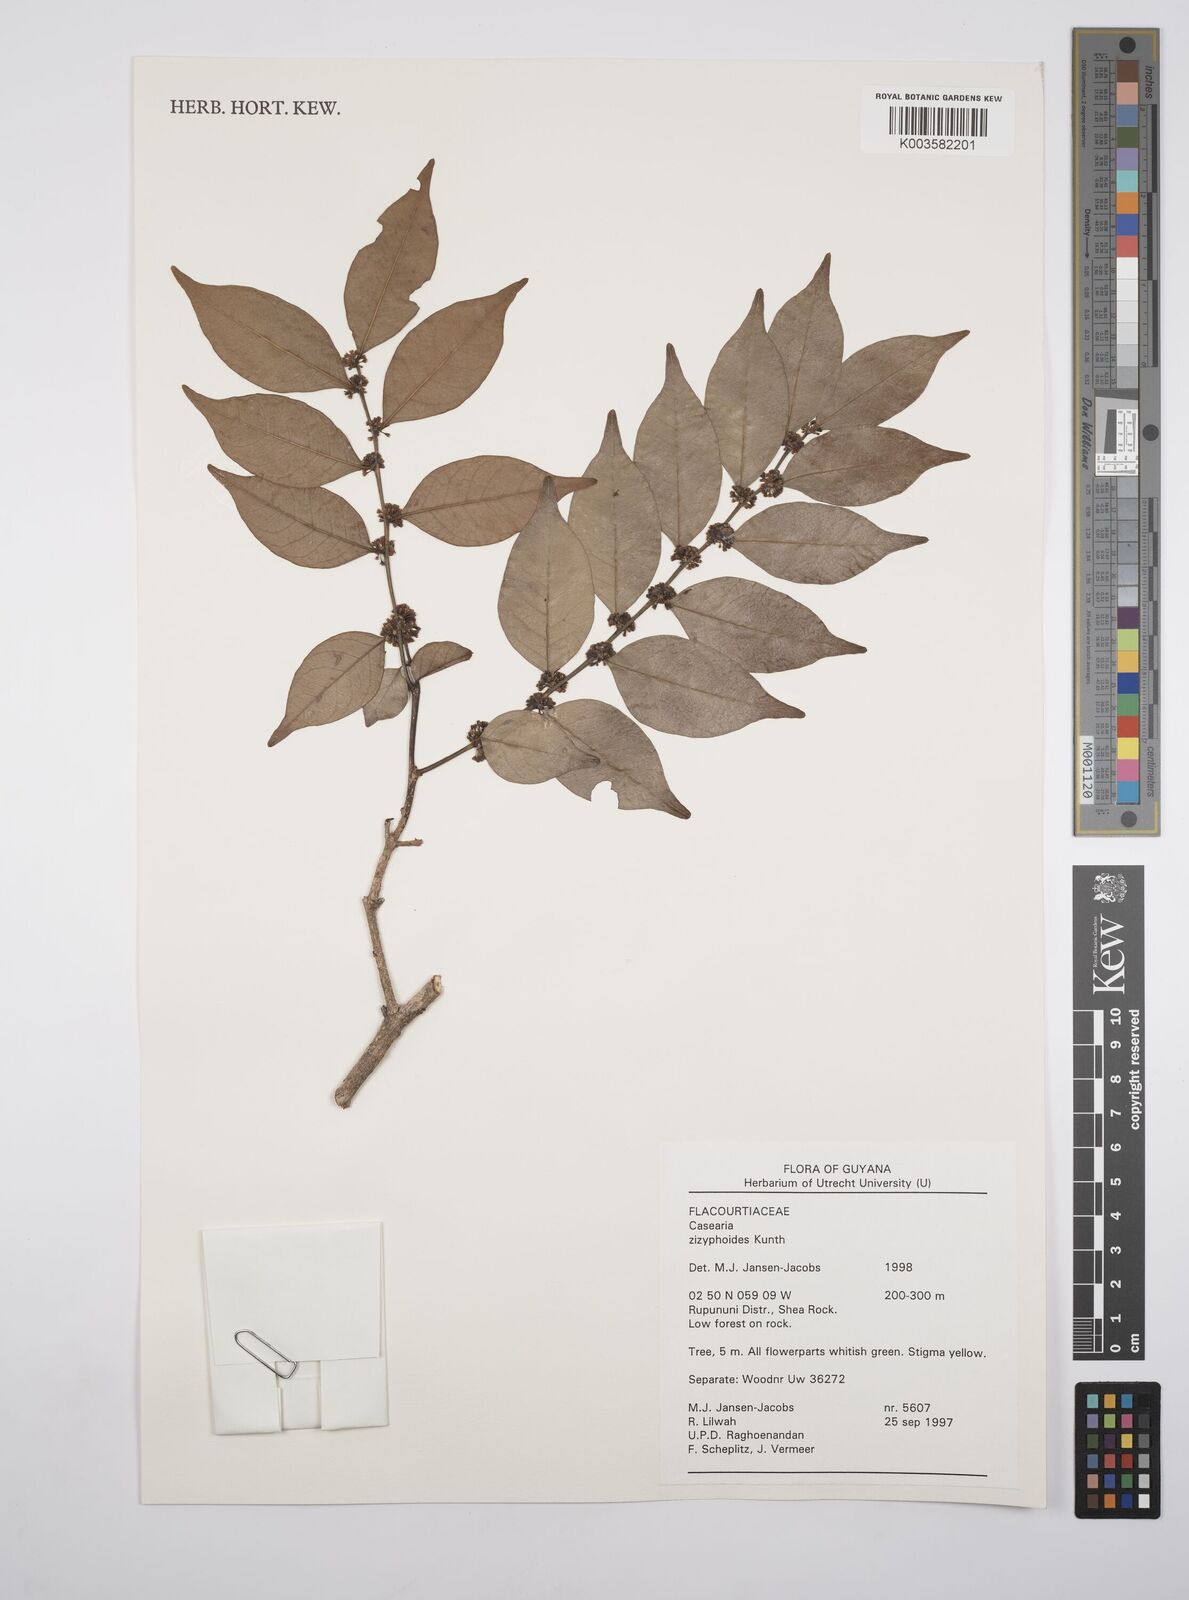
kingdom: Plantae
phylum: Tracheophyta
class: Magnoliopsida
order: Malpighiales
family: Salicaceae
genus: Casearia
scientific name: Casearia zizyphoides
